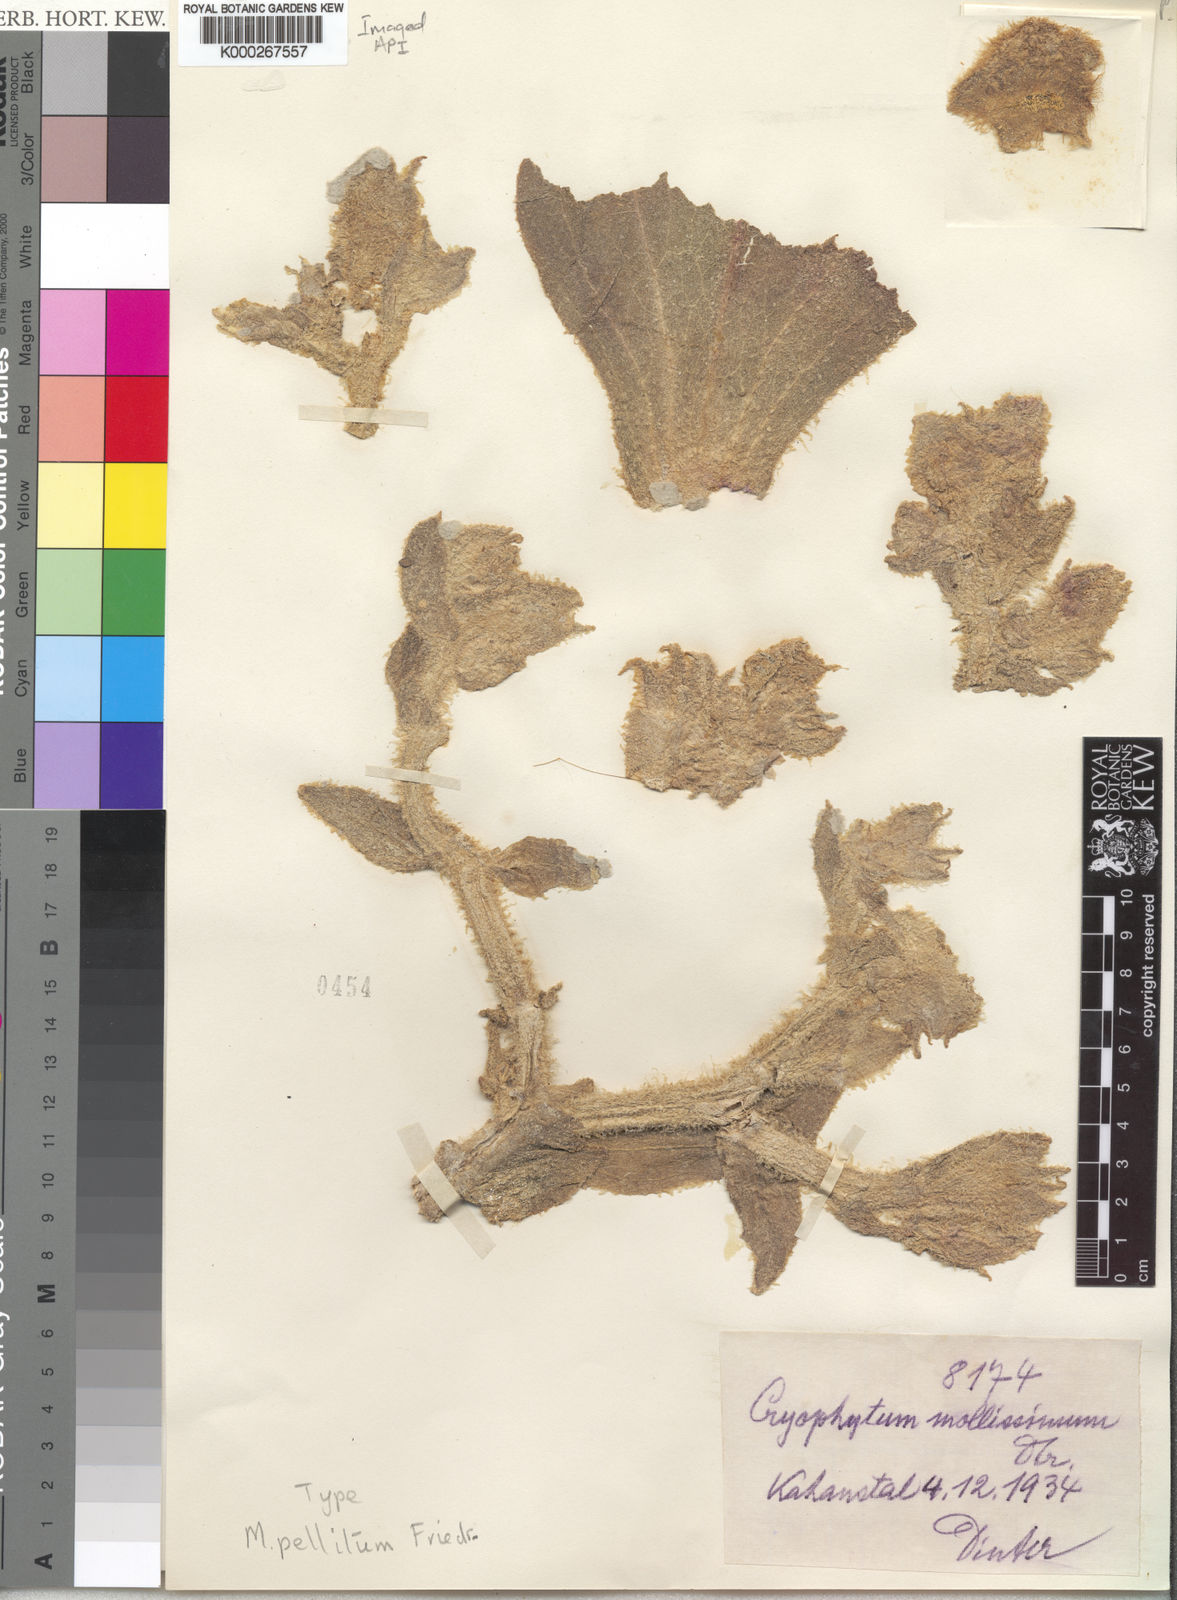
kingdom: Plantae
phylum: Tracheophyta
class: Magnoliopsida
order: Caryophyllales
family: Aizoaceae
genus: Mesembryanthemum
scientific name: Mesembryanthemum pellitum
